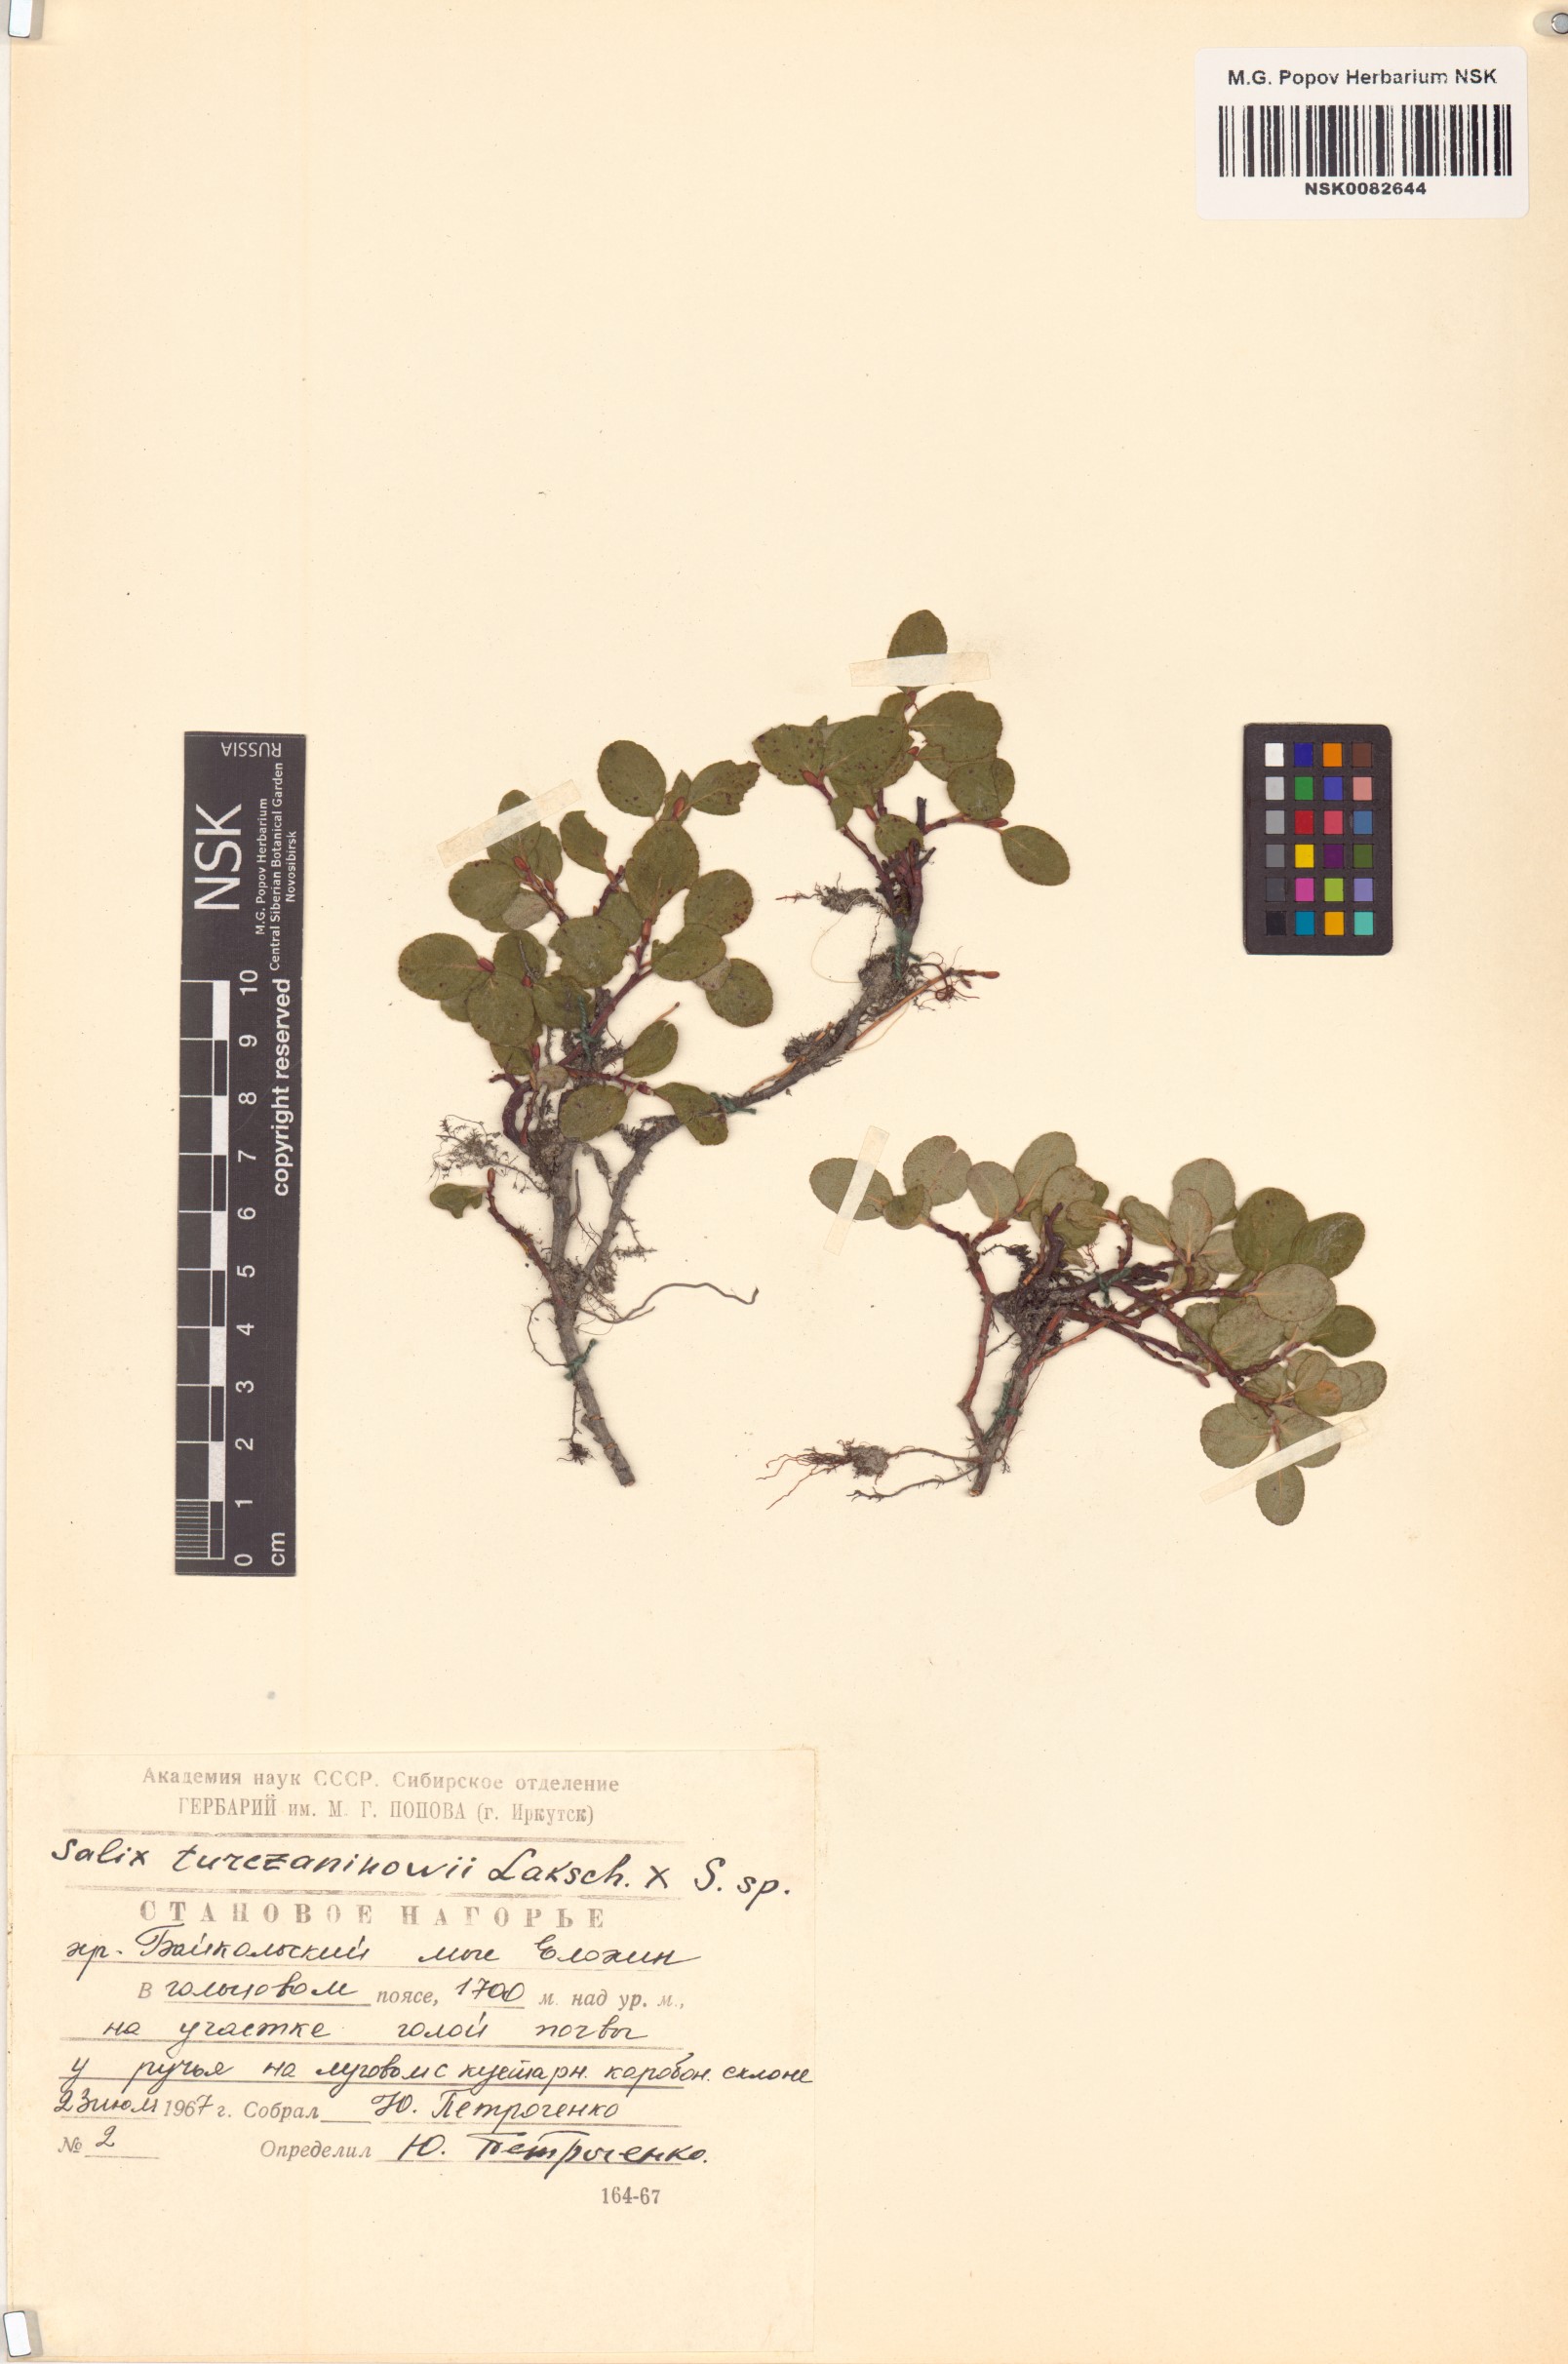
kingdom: Plantae
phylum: Tracheophyta
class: Magnoliopsida
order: Malpighiales
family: Salicaceae
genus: Salix
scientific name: Salix turczaninowii
